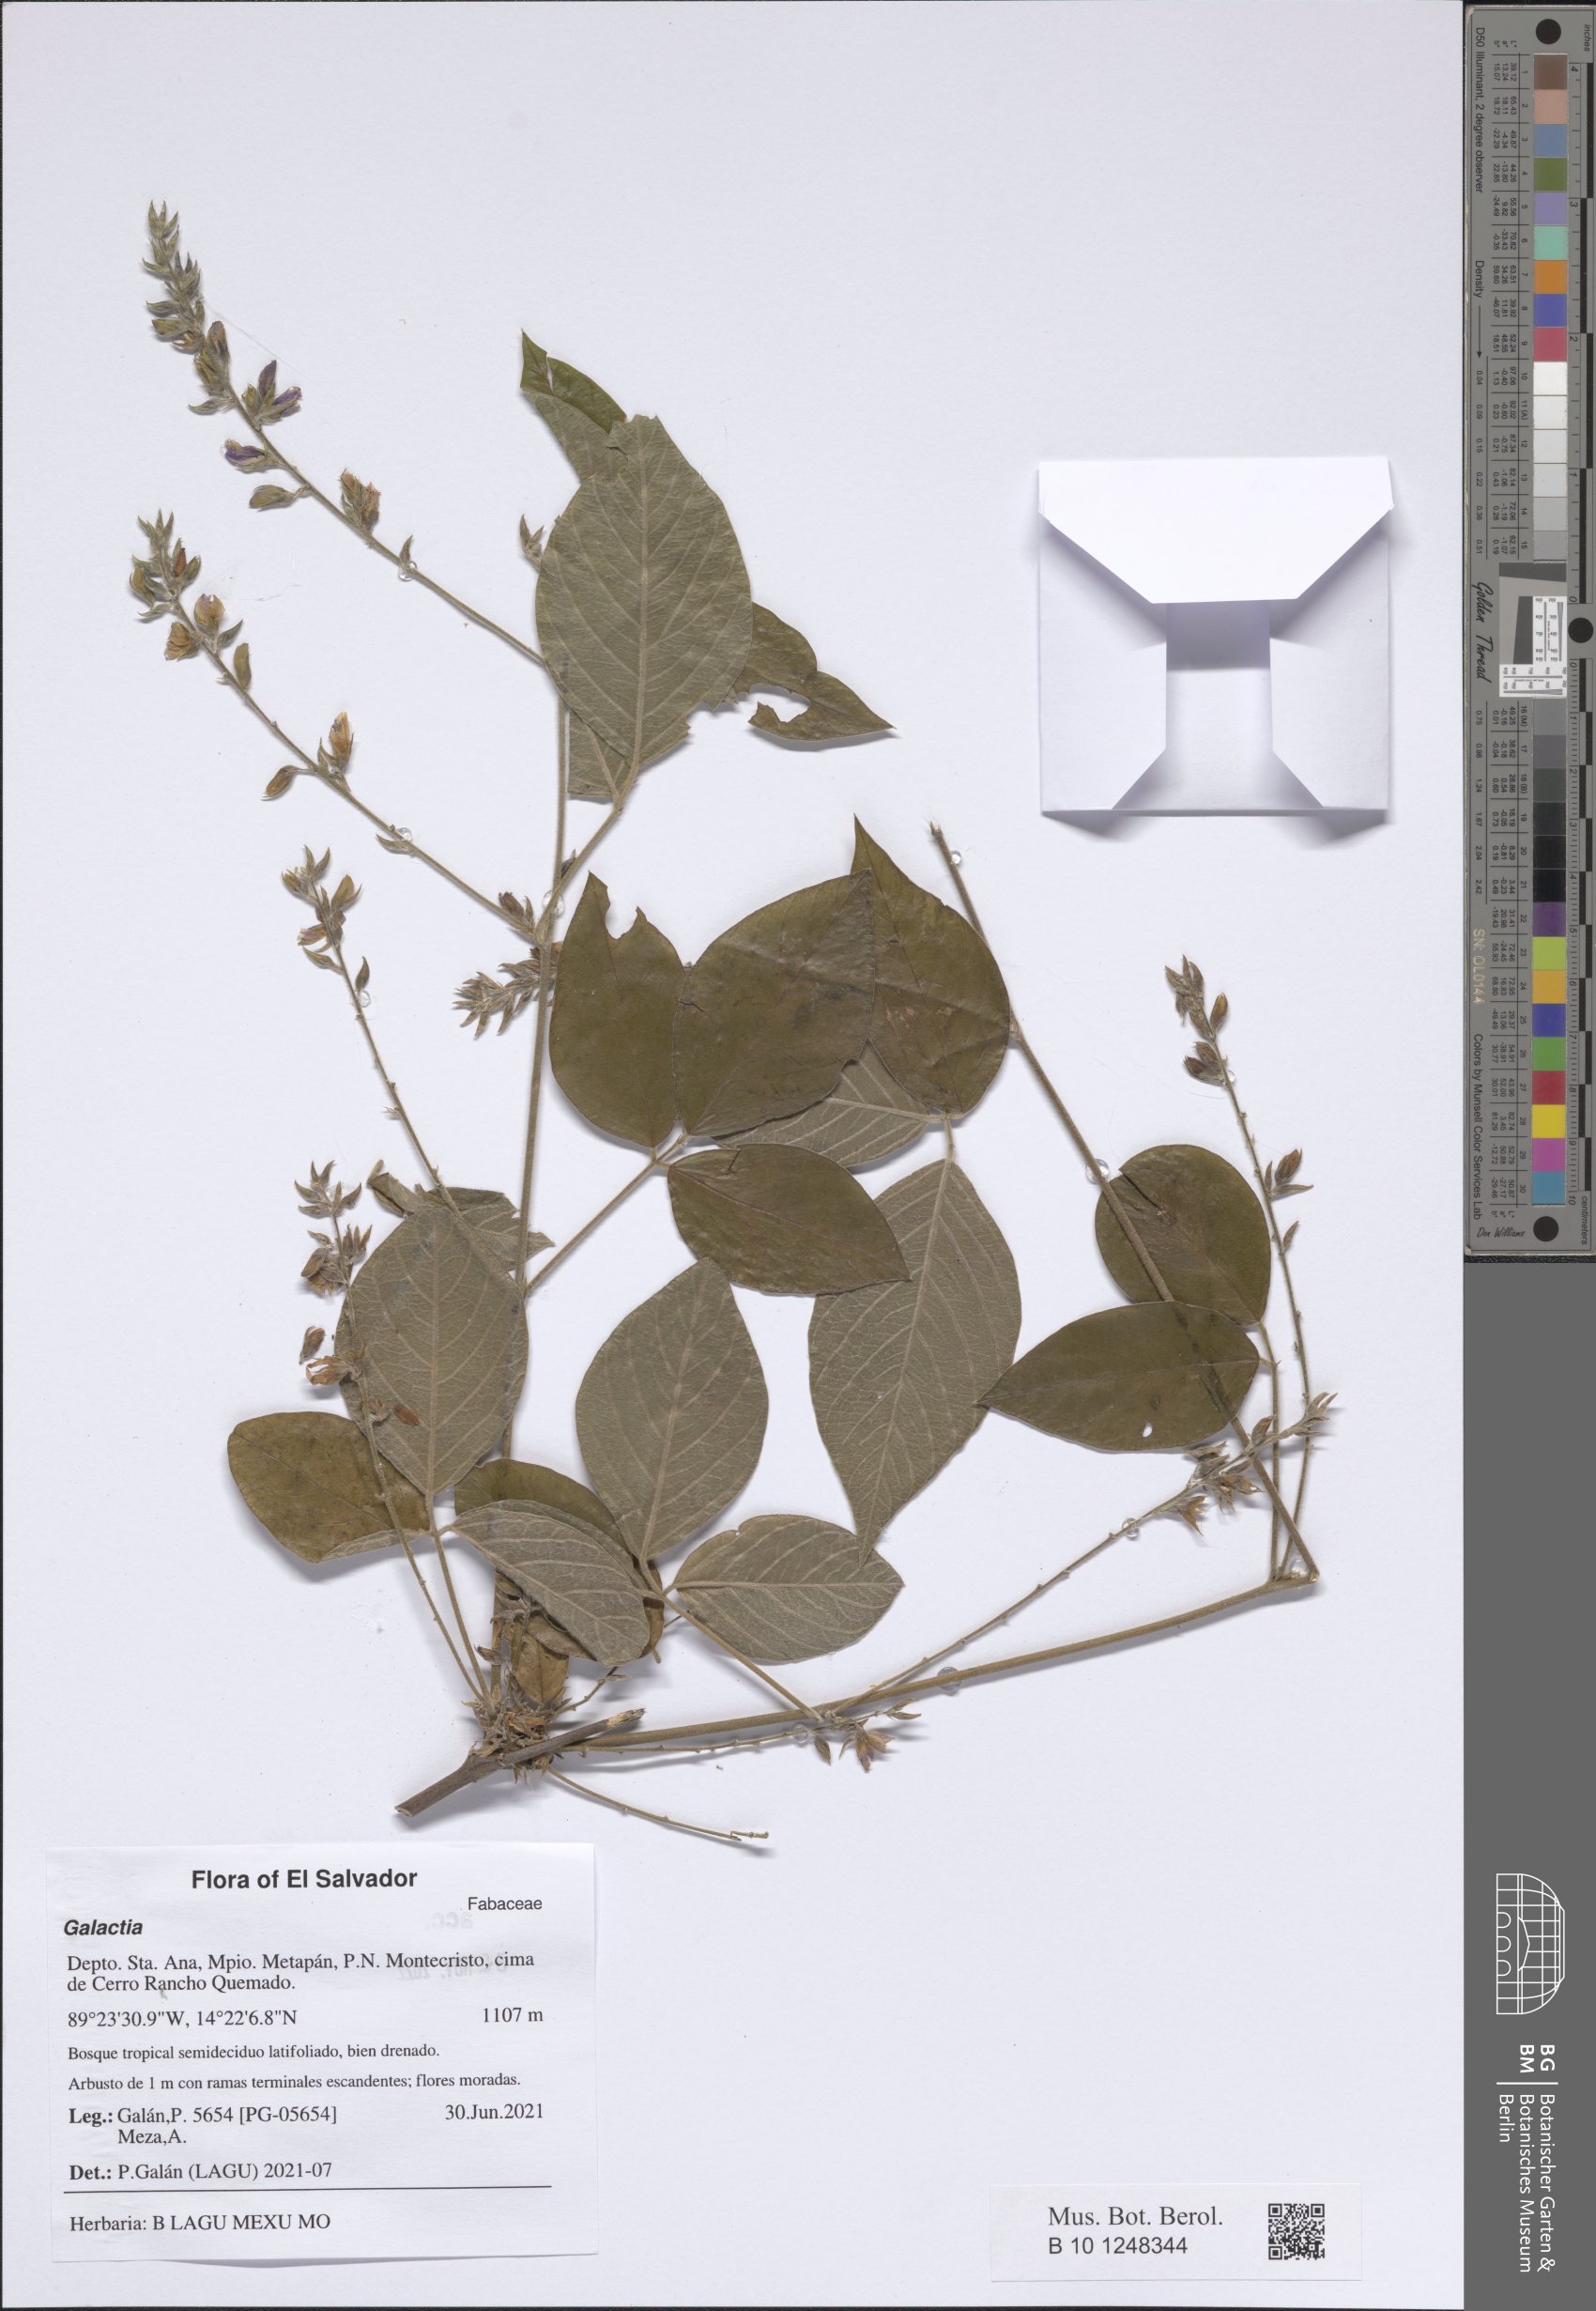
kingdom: Plantae
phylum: Tracheophyta
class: Magnoliopsida
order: Fabales
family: Fabaceae
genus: Galactia
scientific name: Galactia
